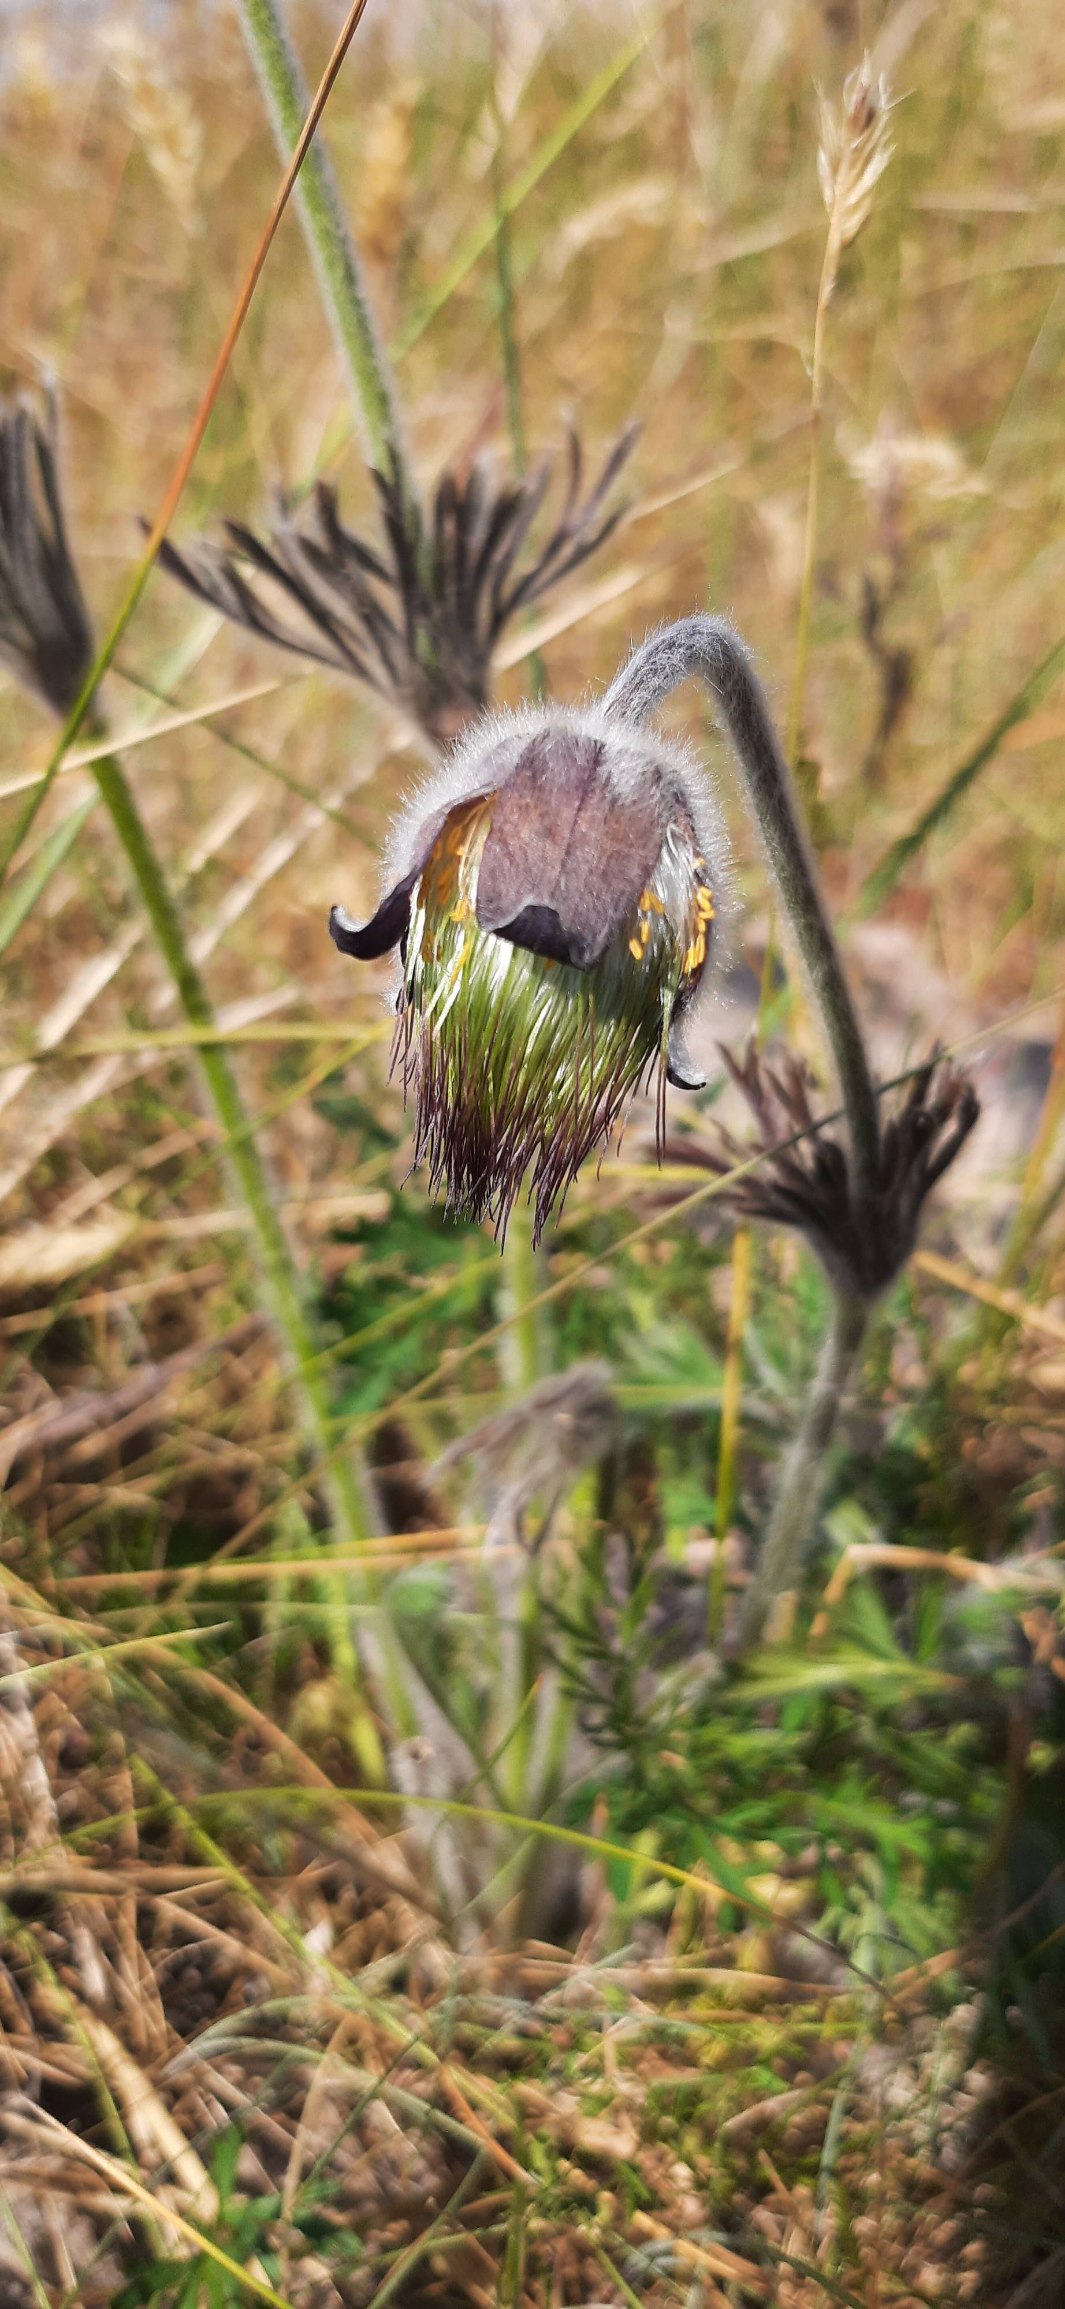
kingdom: Plantae
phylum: Tracheophyta
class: Magnoliopsida
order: Ranunculales
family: Ranunculaceae
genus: Pulsatilla
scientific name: Pulsatilla pratensis
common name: Nikkende kobjælde
